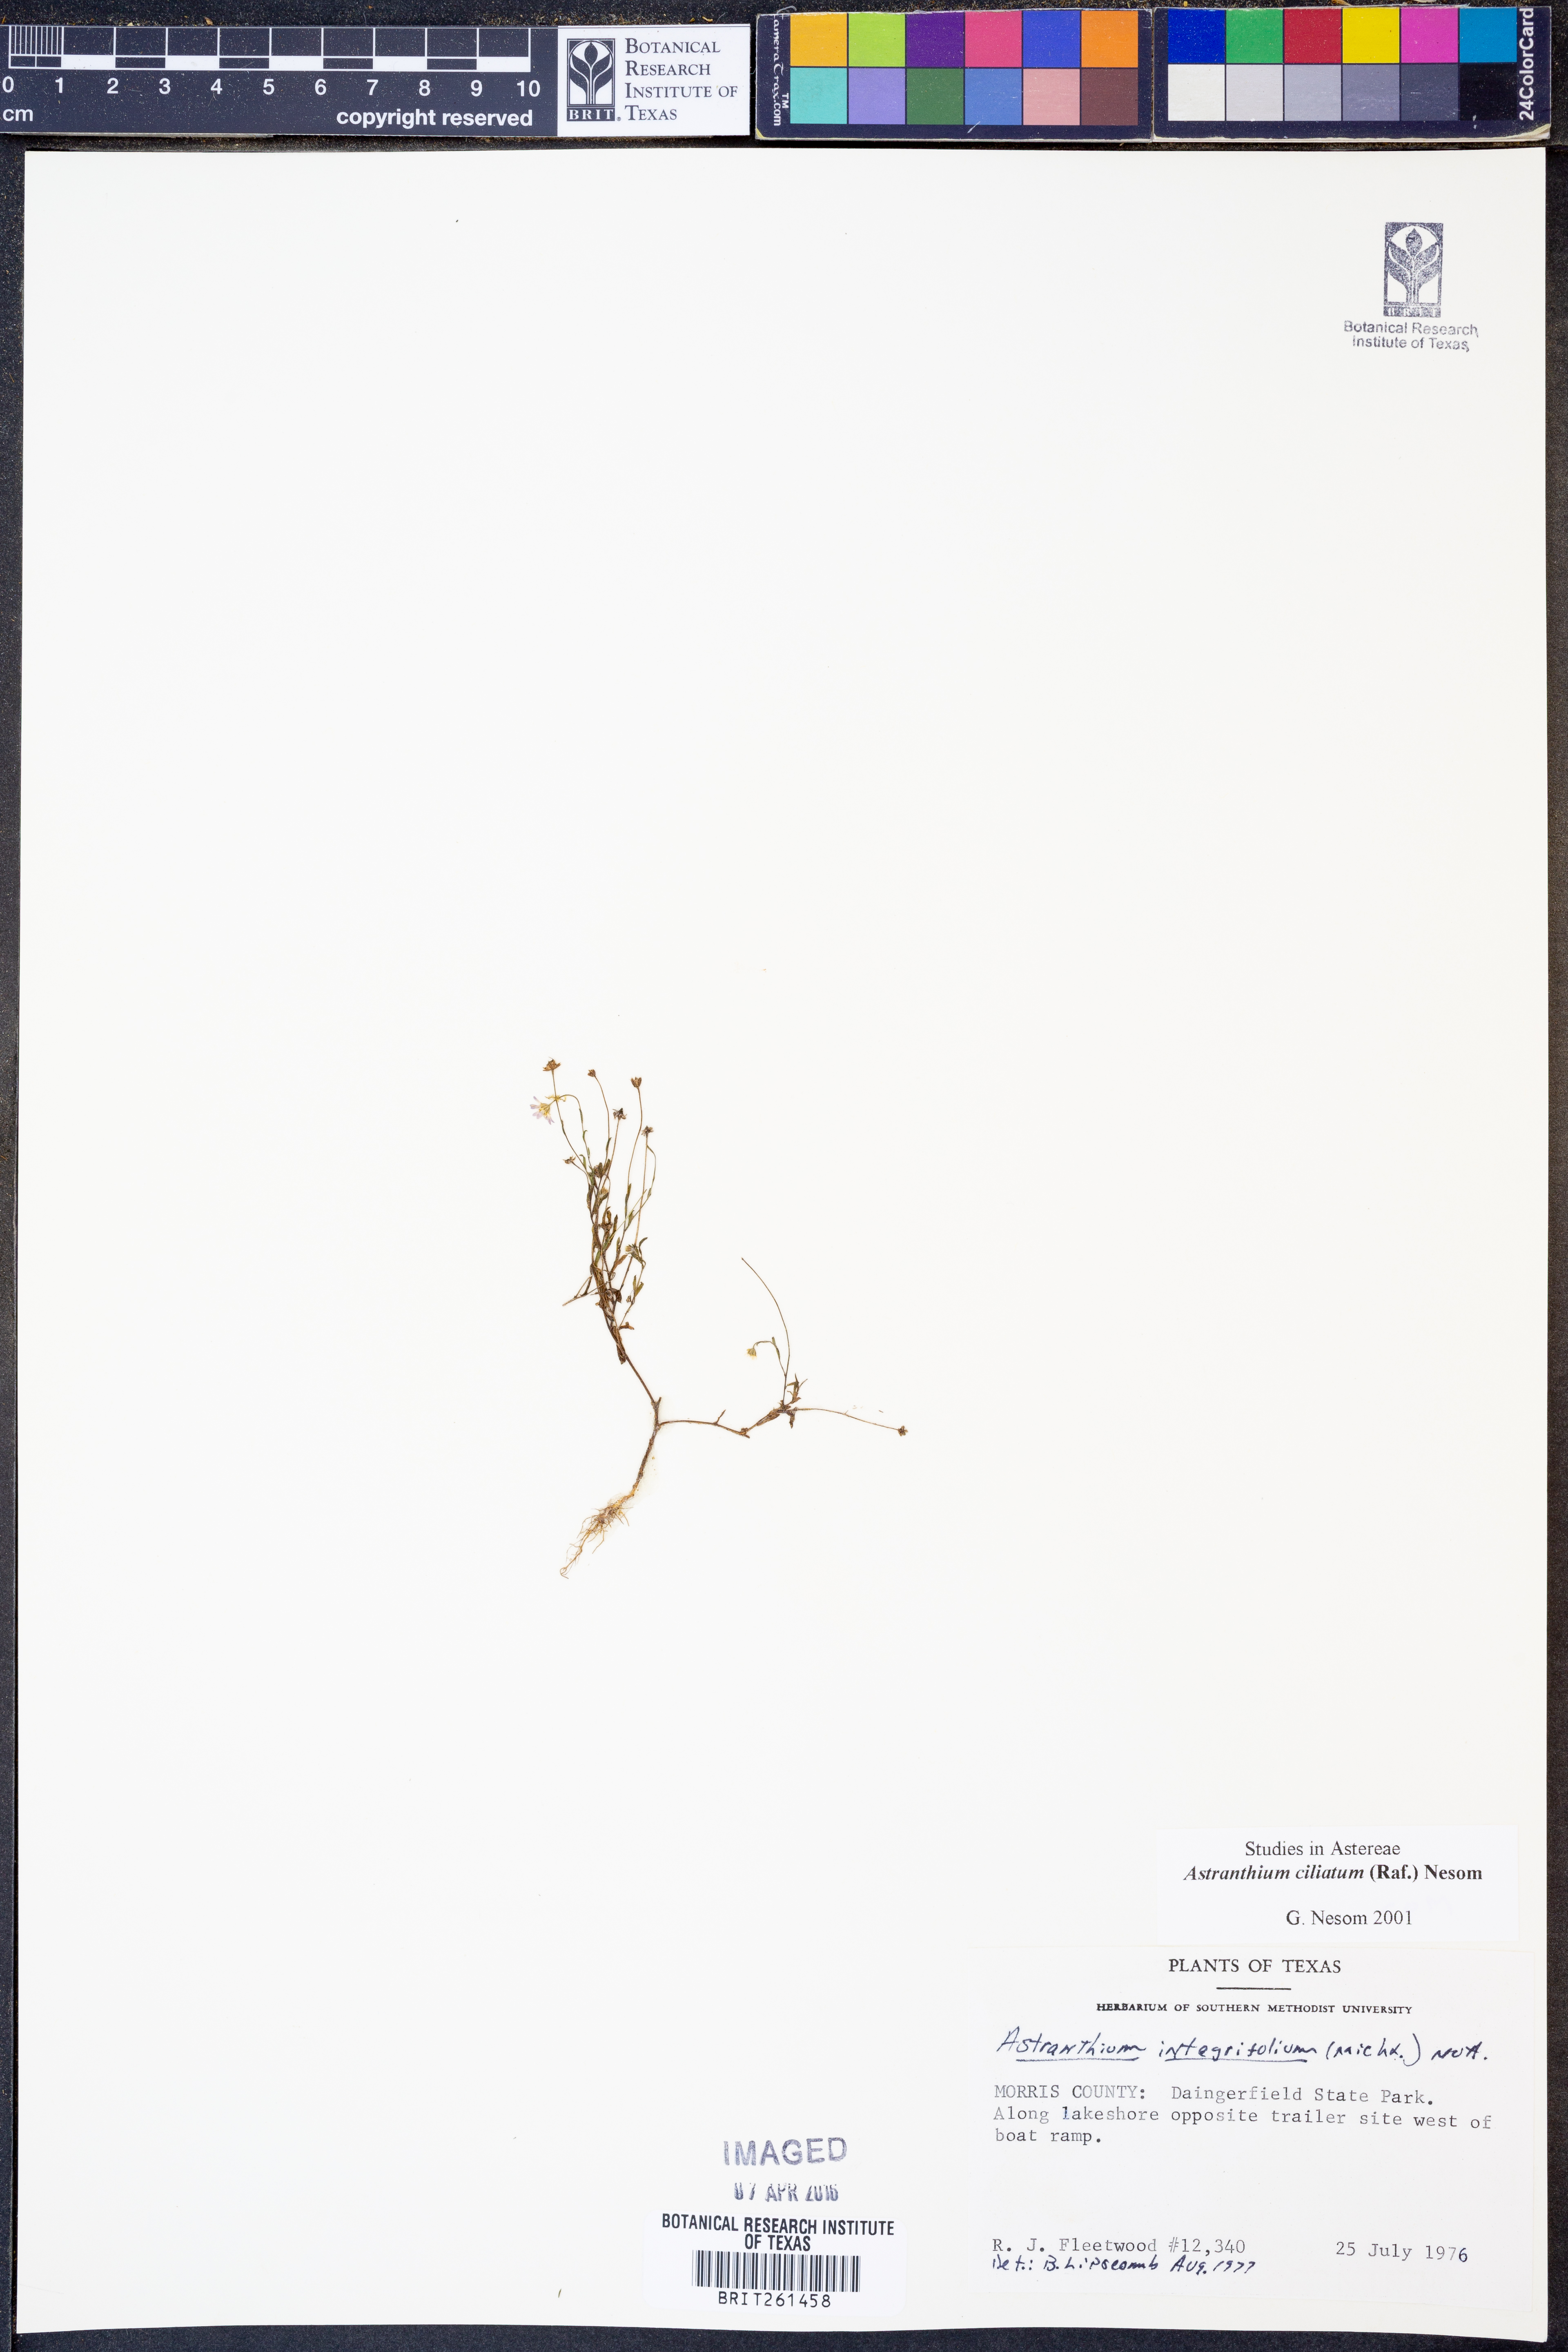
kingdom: Plantae
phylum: Tracheophyta
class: Magnoliopsida
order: Asterales
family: Asteraceae
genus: Astranthium
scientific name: Astranthium ciliatum
